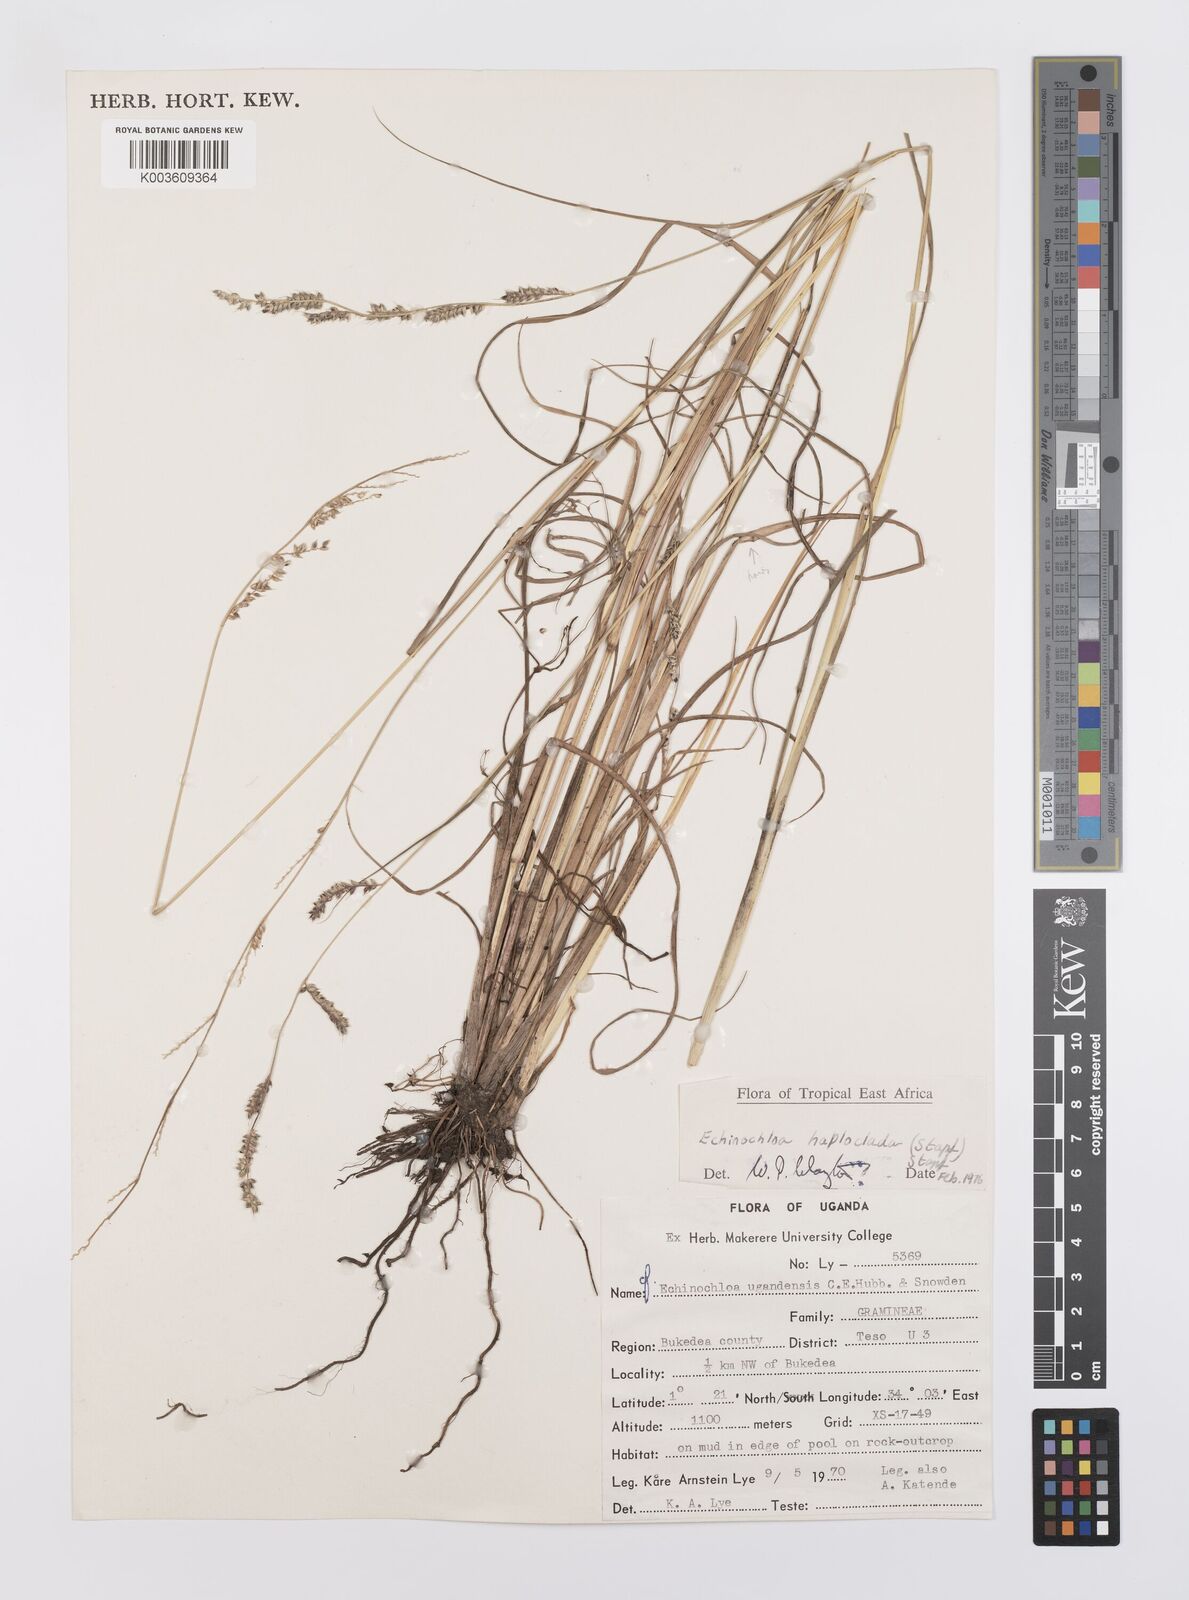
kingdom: Plantae
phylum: Tracheophyta
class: Liliopsida
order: Poales
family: Poaceae
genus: Echinochloa
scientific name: Echinochloa haploclada
